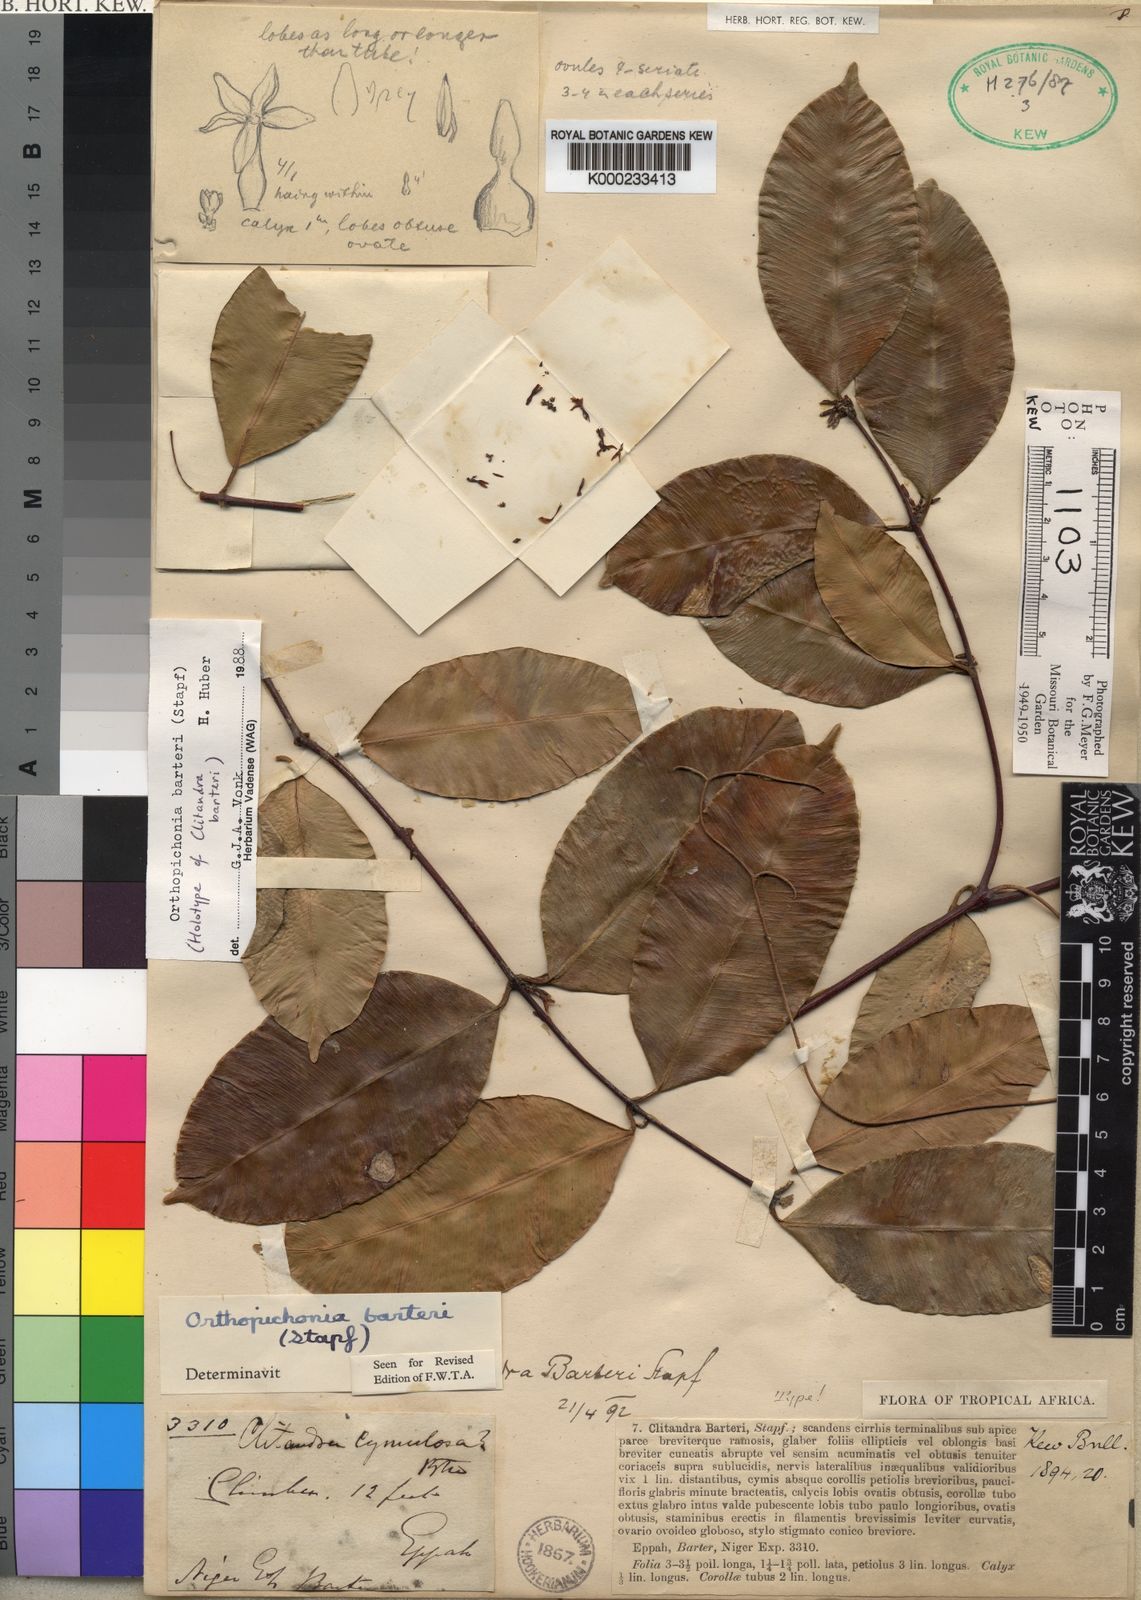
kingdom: Plantae
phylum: Tracheophyta
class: Magnoliopsida
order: Gentianales
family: Apocynaceae
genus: Orthopichonia
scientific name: Orthopichonia barteri
